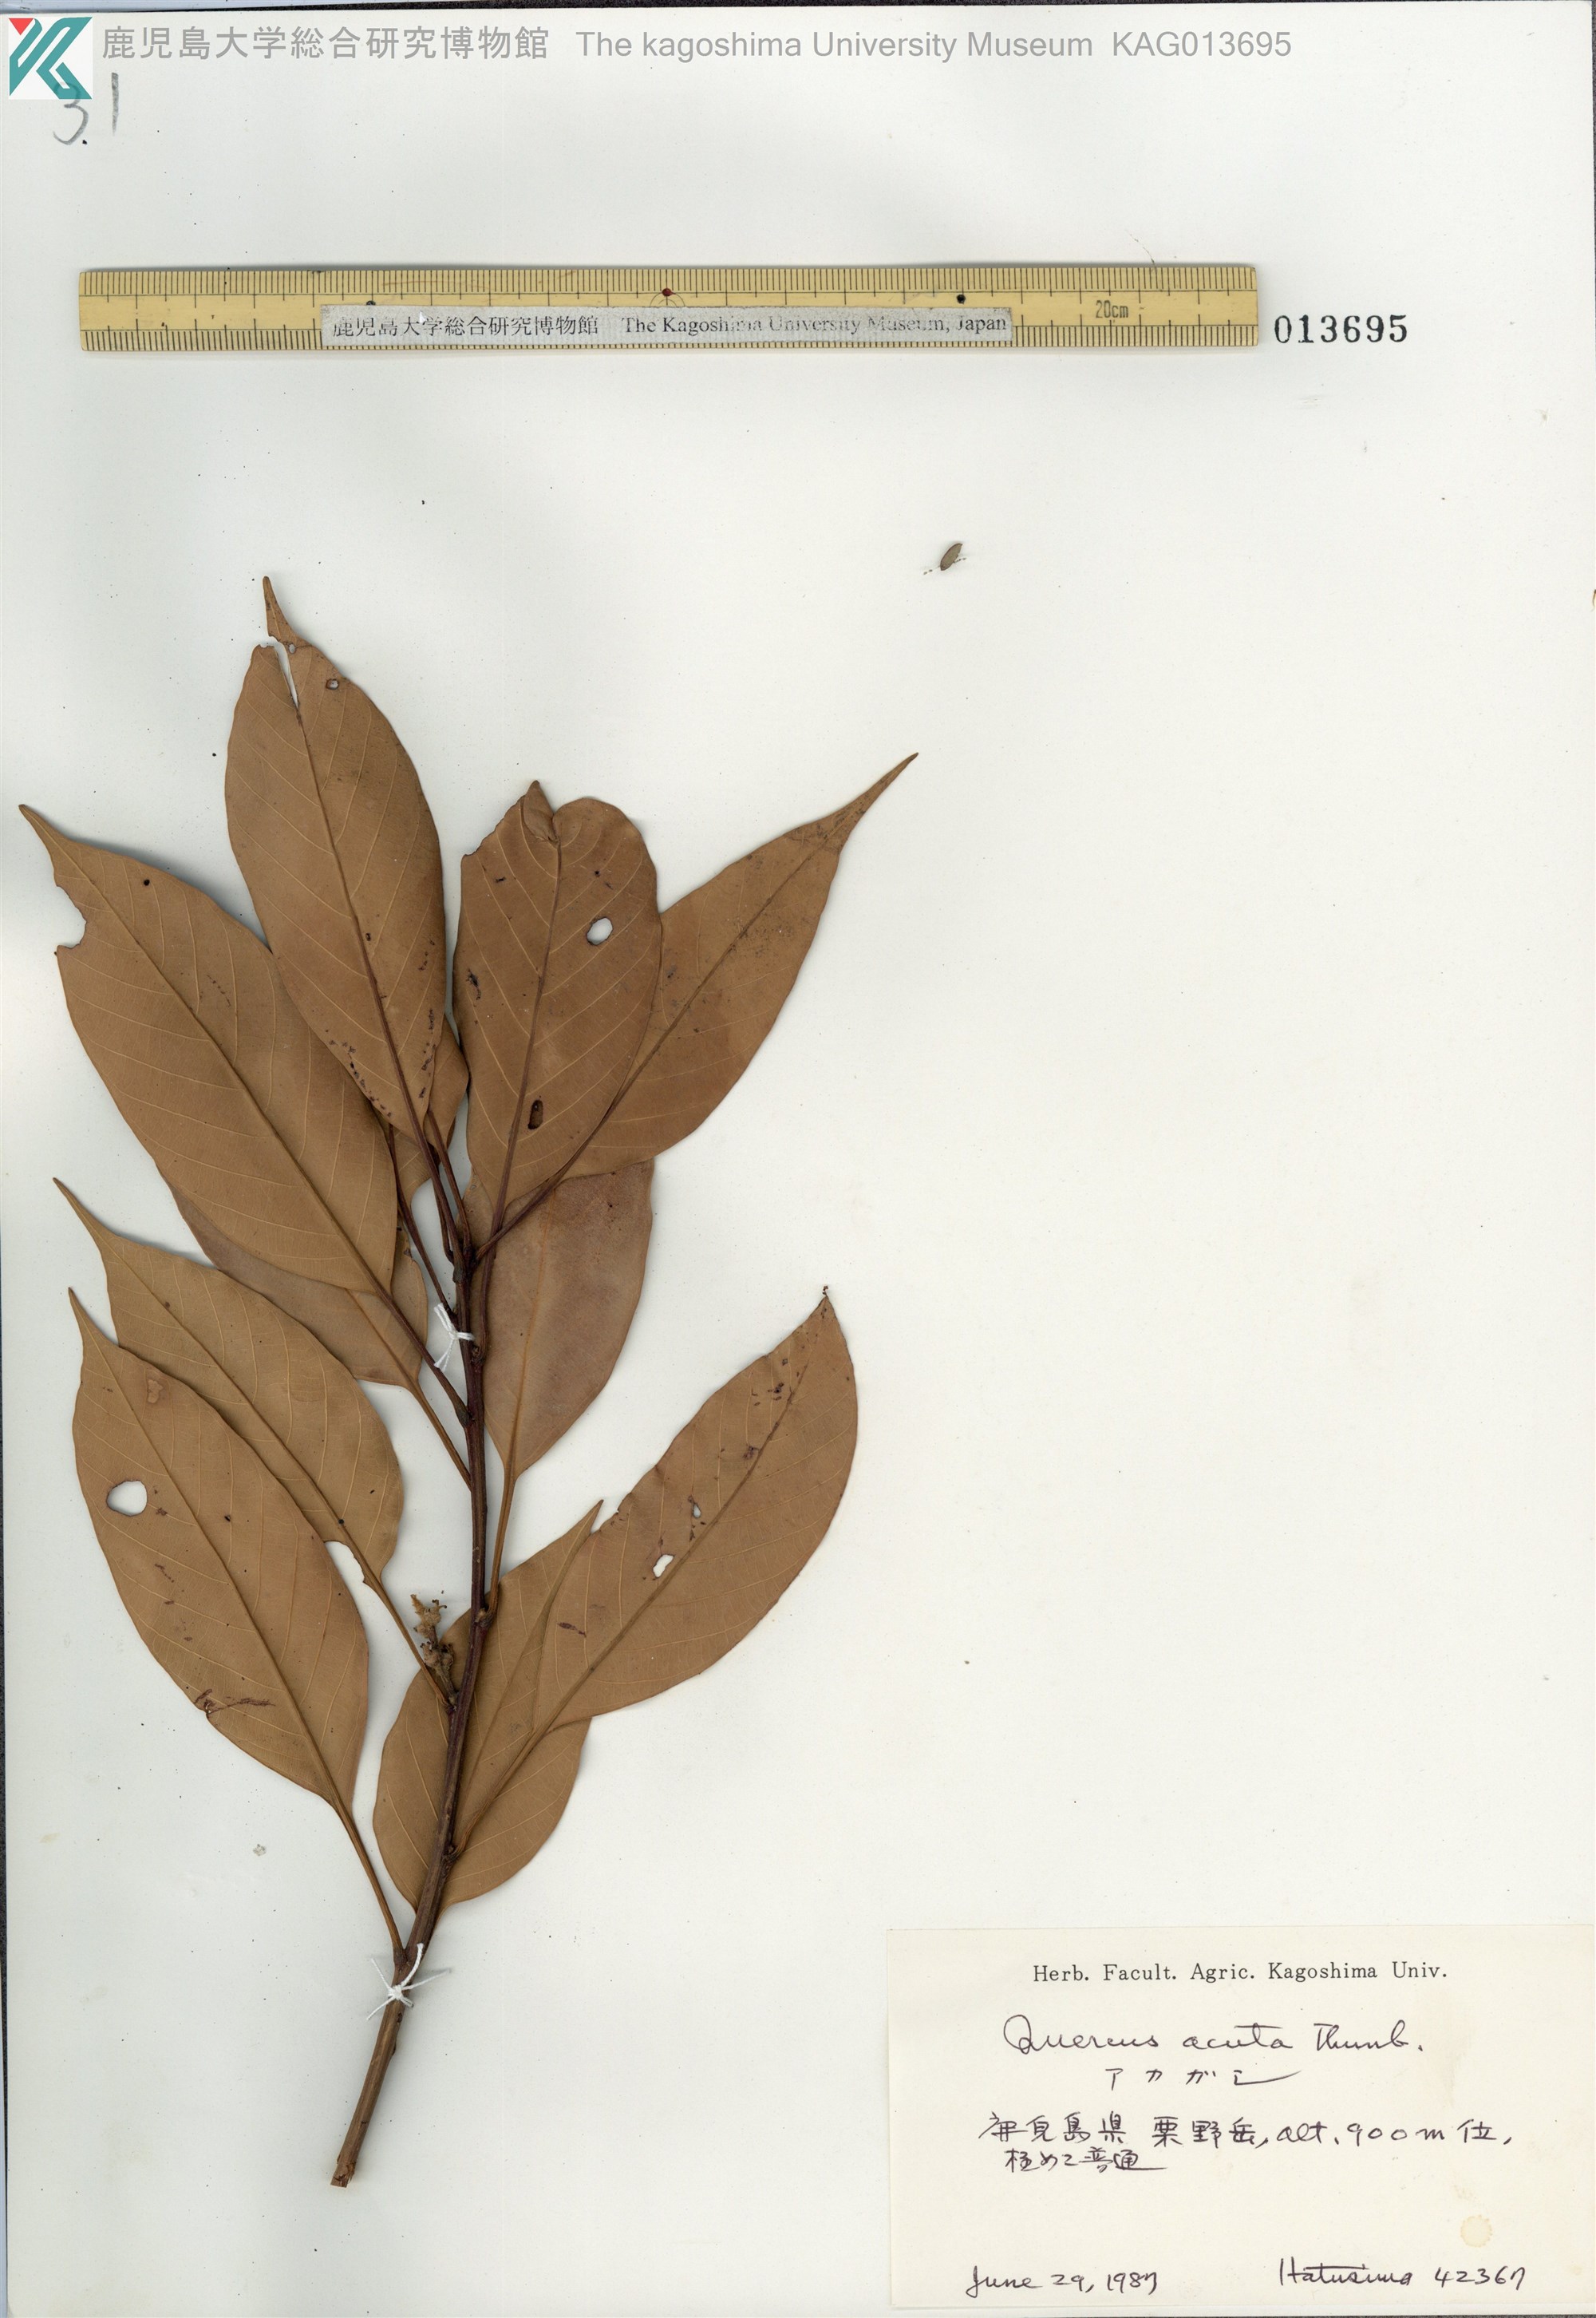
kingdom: Plantae
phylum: Tracheophyta
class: Magnoliopsida
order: Fagales
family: Fagaceae
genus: Quercus
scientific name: Quercus acuta
